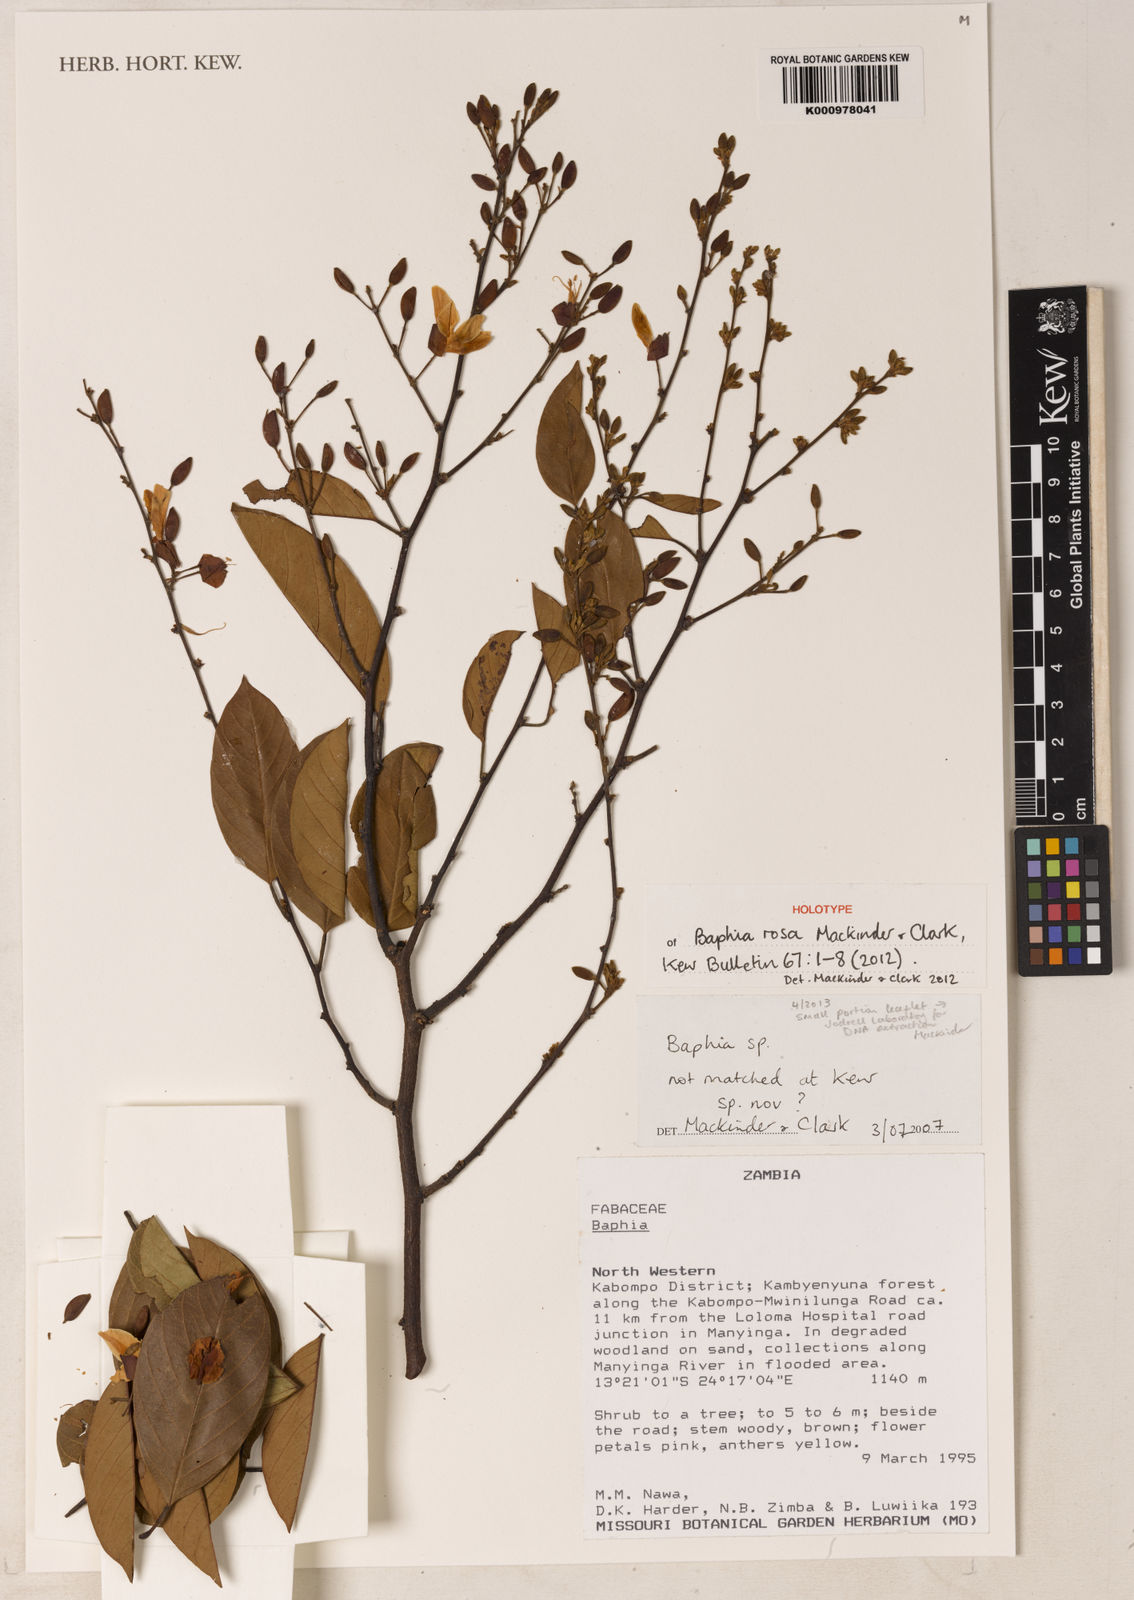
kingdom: Plantae
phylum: Tracheophyta
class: Magnoliopsida
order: Fabales
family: Fabaceae
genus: Baphia
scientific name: Baphia rosa
